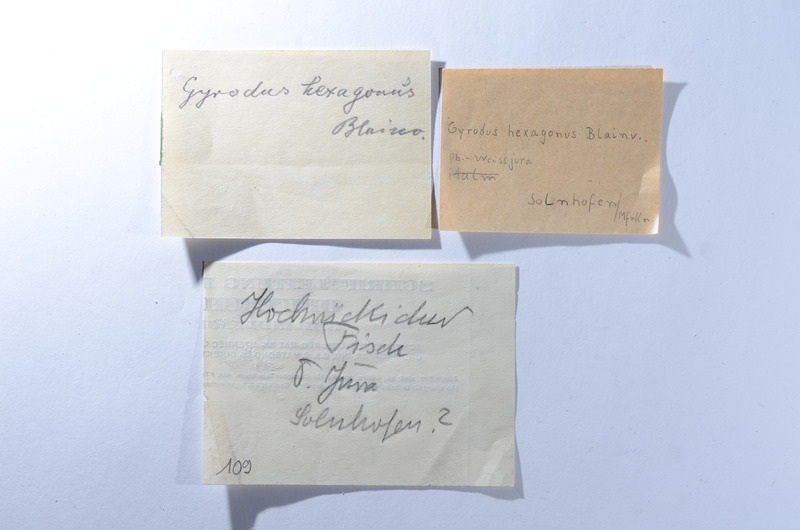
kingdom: Animalia
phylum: Chordata
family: Gyrodontidae
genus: Gyrodus
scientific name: Gyrodus hexagonus
